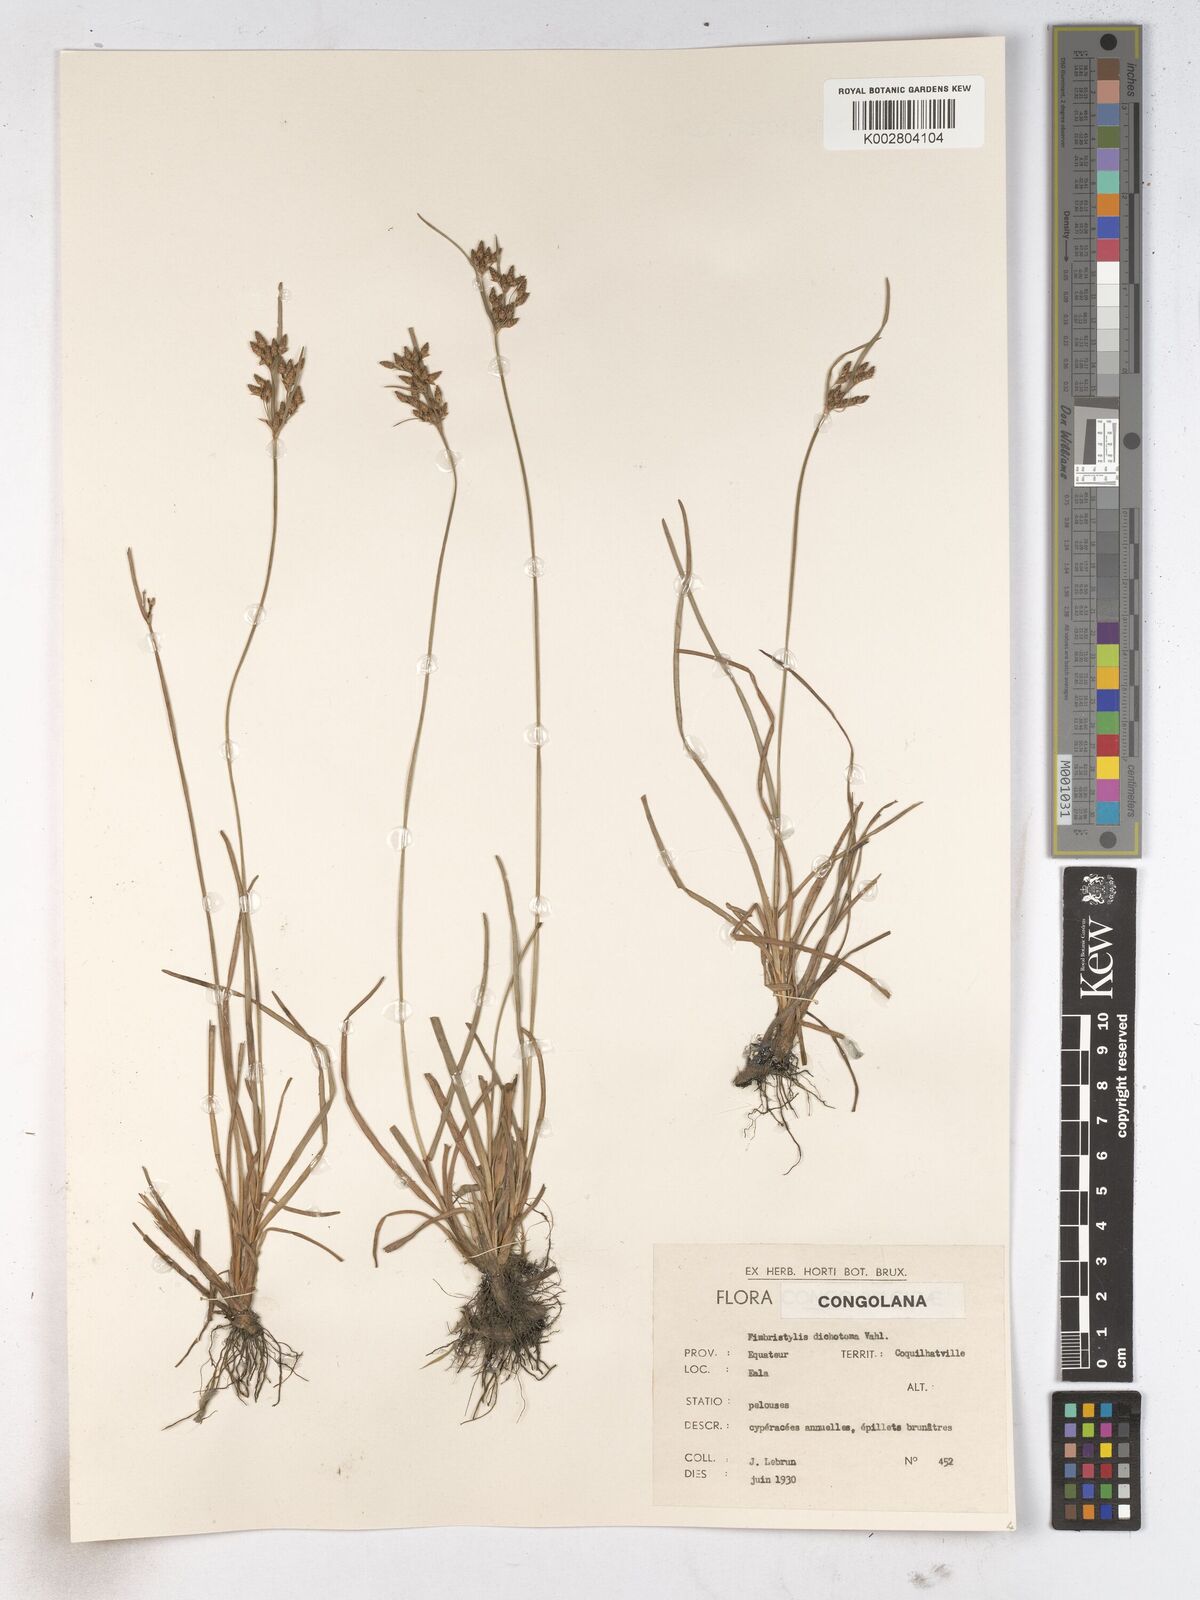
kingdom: Plantae
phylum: Tracheophyta
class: Liliopsida
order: Poales
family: Cyperaceae
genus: Fimbristylis
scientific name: Fimbristylis dichotoma
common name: Forked fimbry
